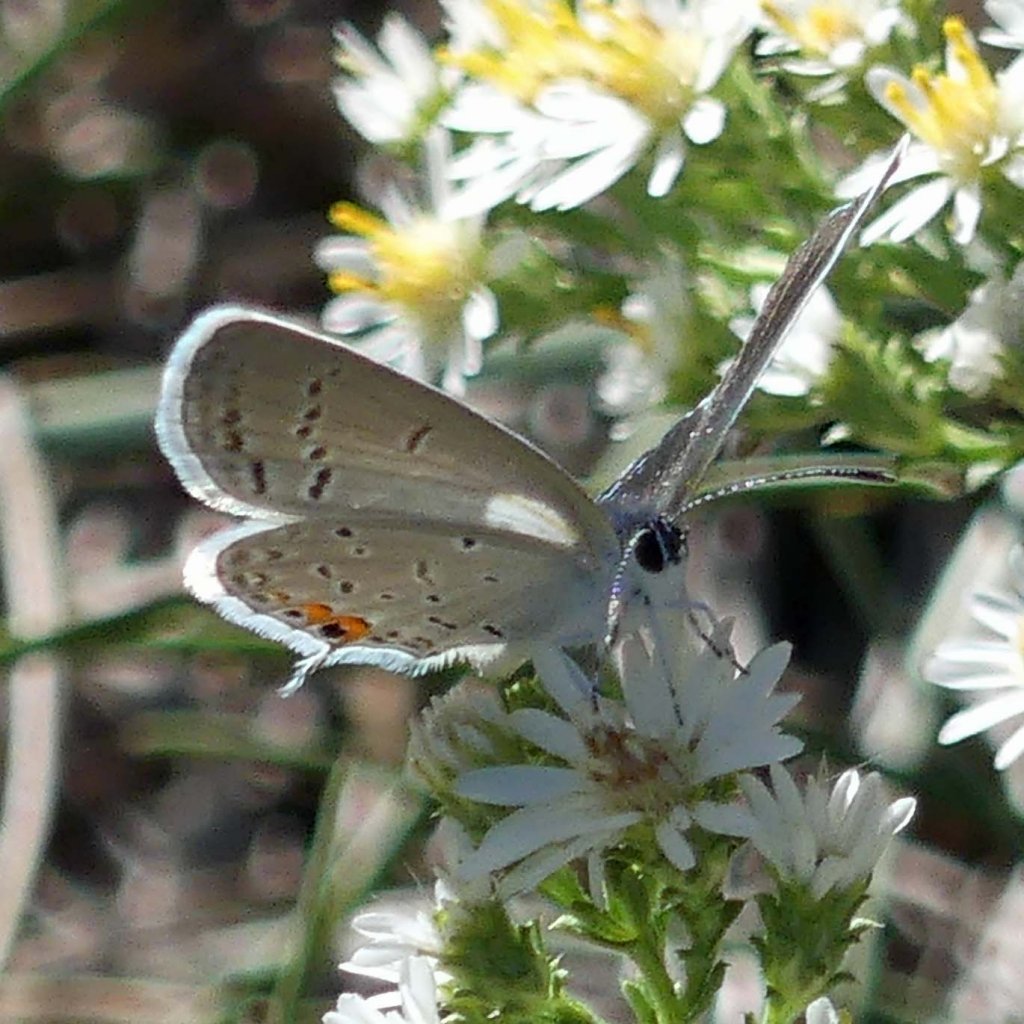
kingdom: Animalia
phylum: Arthropoda
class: Insecta
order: Lepidoptera
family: Lycaenidae
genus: Elkalyce
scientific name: Elkalyce comyntas
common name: Eastern Tailed-Blue
